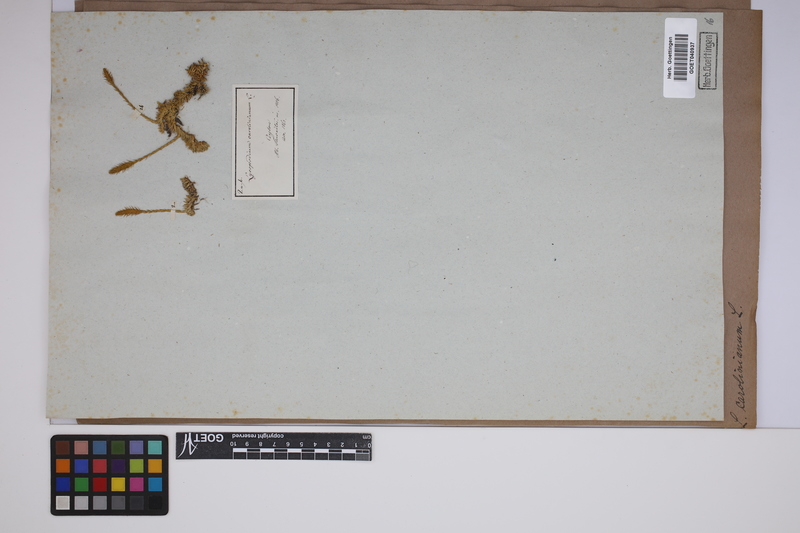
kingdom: Plantae
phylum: Tracheophyta
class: Lycopodiopsida
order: Lycopodiales
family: Lycopodiaceae
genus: Brownseya
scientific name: Brownseya serpentina
